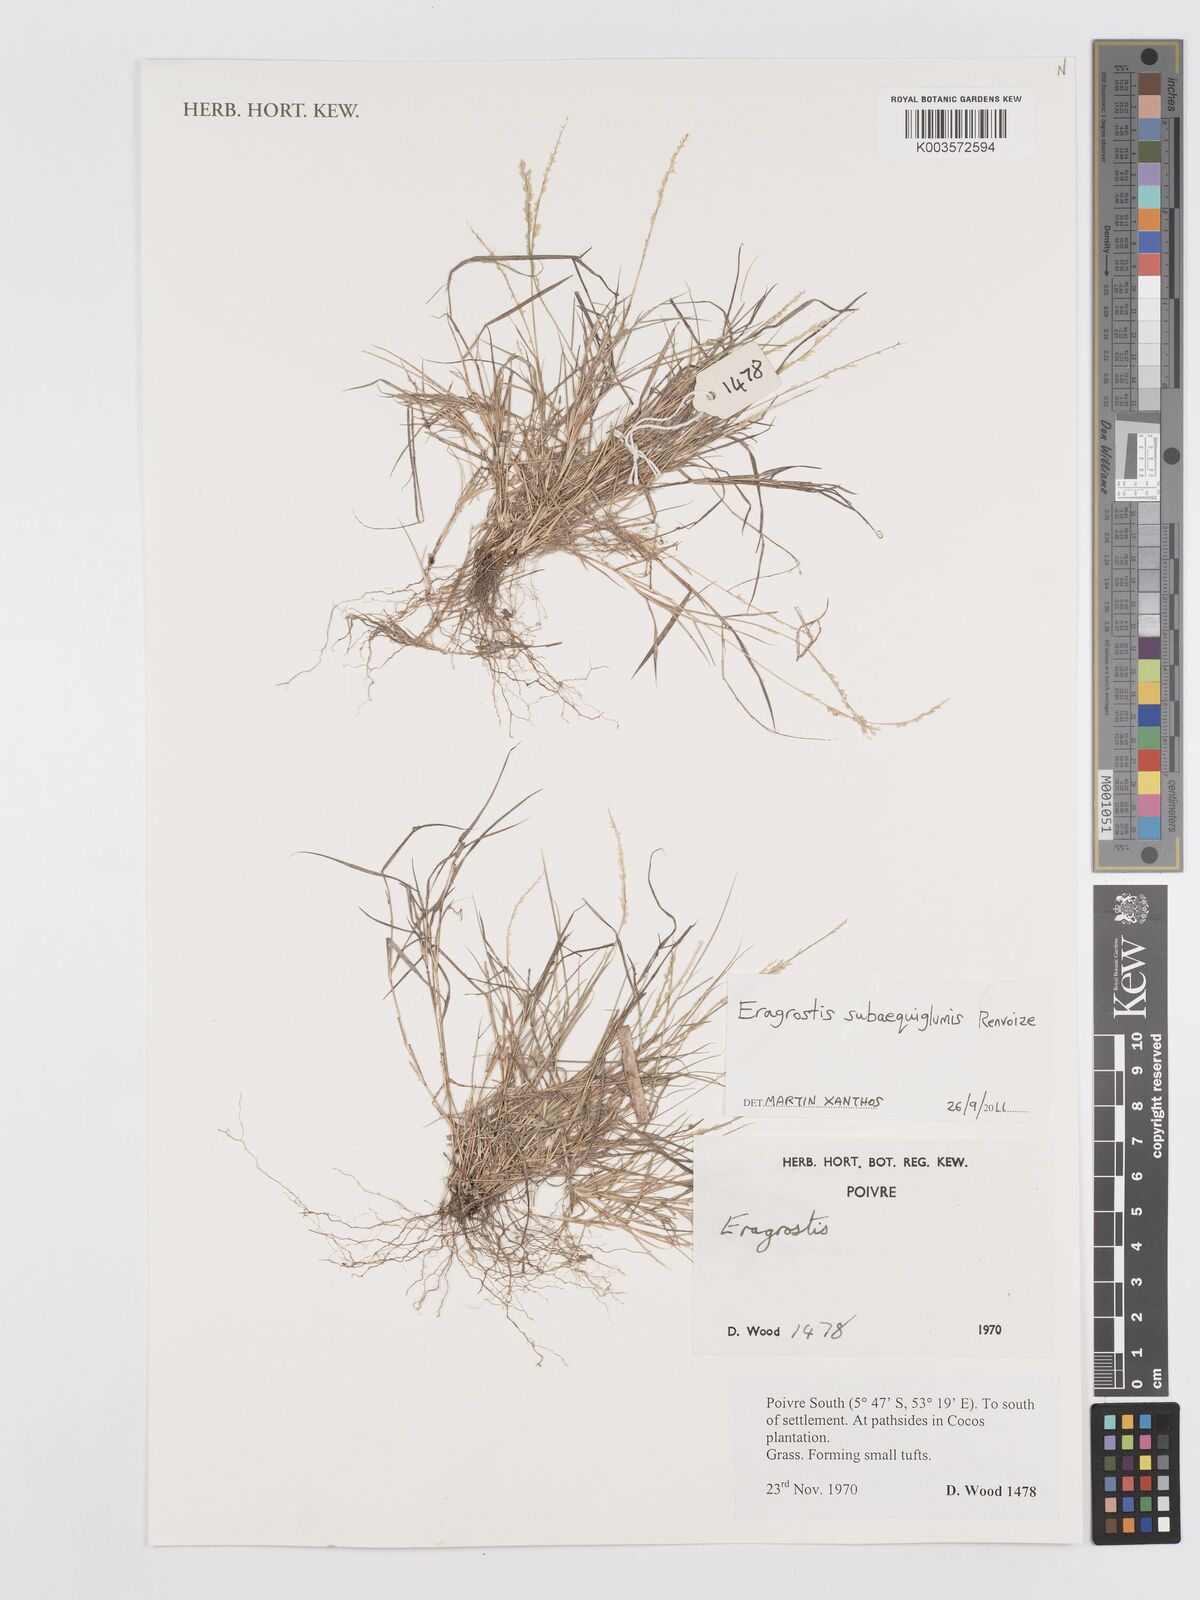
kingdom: Plantae
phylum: Tracheophyta
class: Liliopsida
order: Poales
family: Poaceae
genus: Eragrostis
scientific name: Eragrostis subaequiglumis
